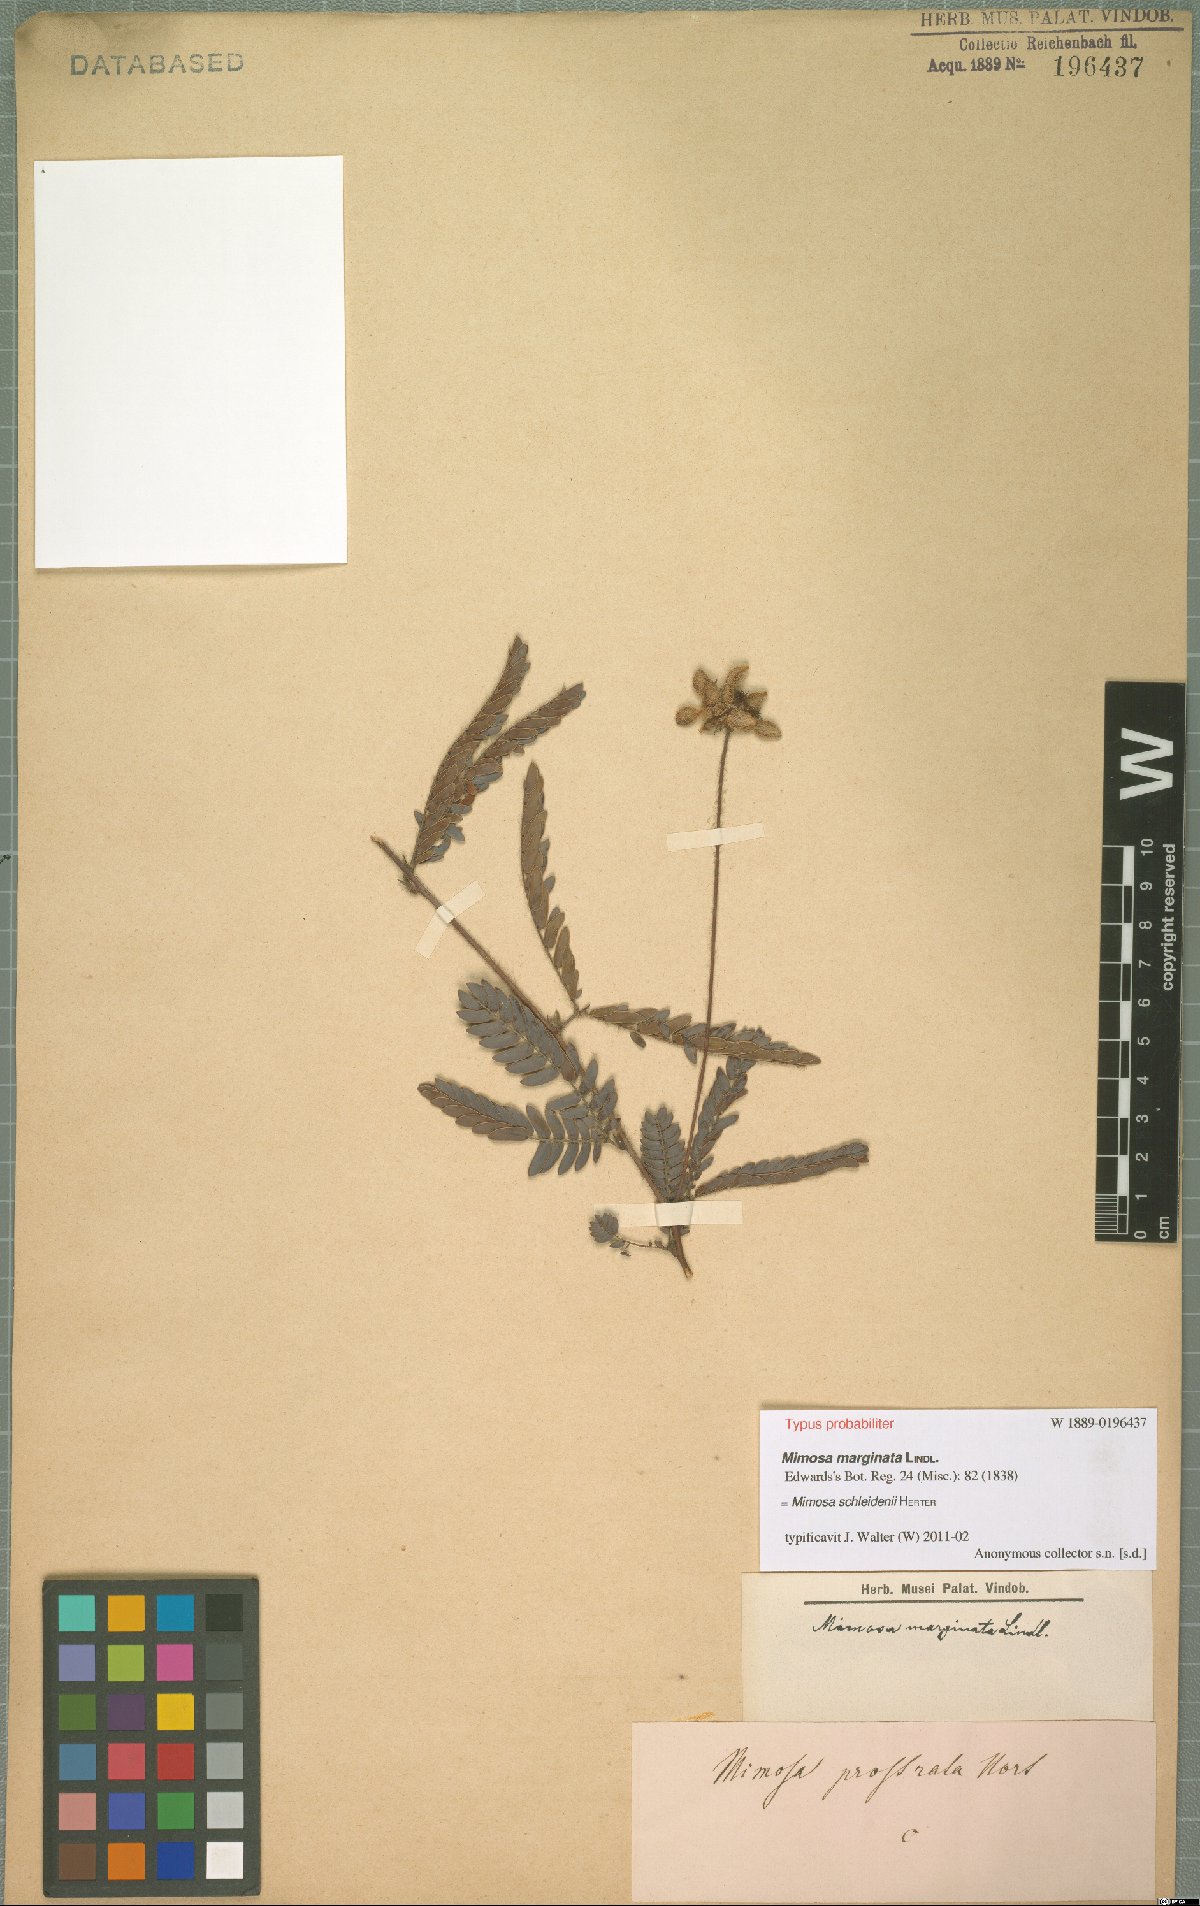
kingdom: Plantae
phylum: Tracheophyta
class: Magnoliopsida
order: Fabales
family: Fabaceae
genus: Mimosa
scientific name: Mimosa schleidenii
